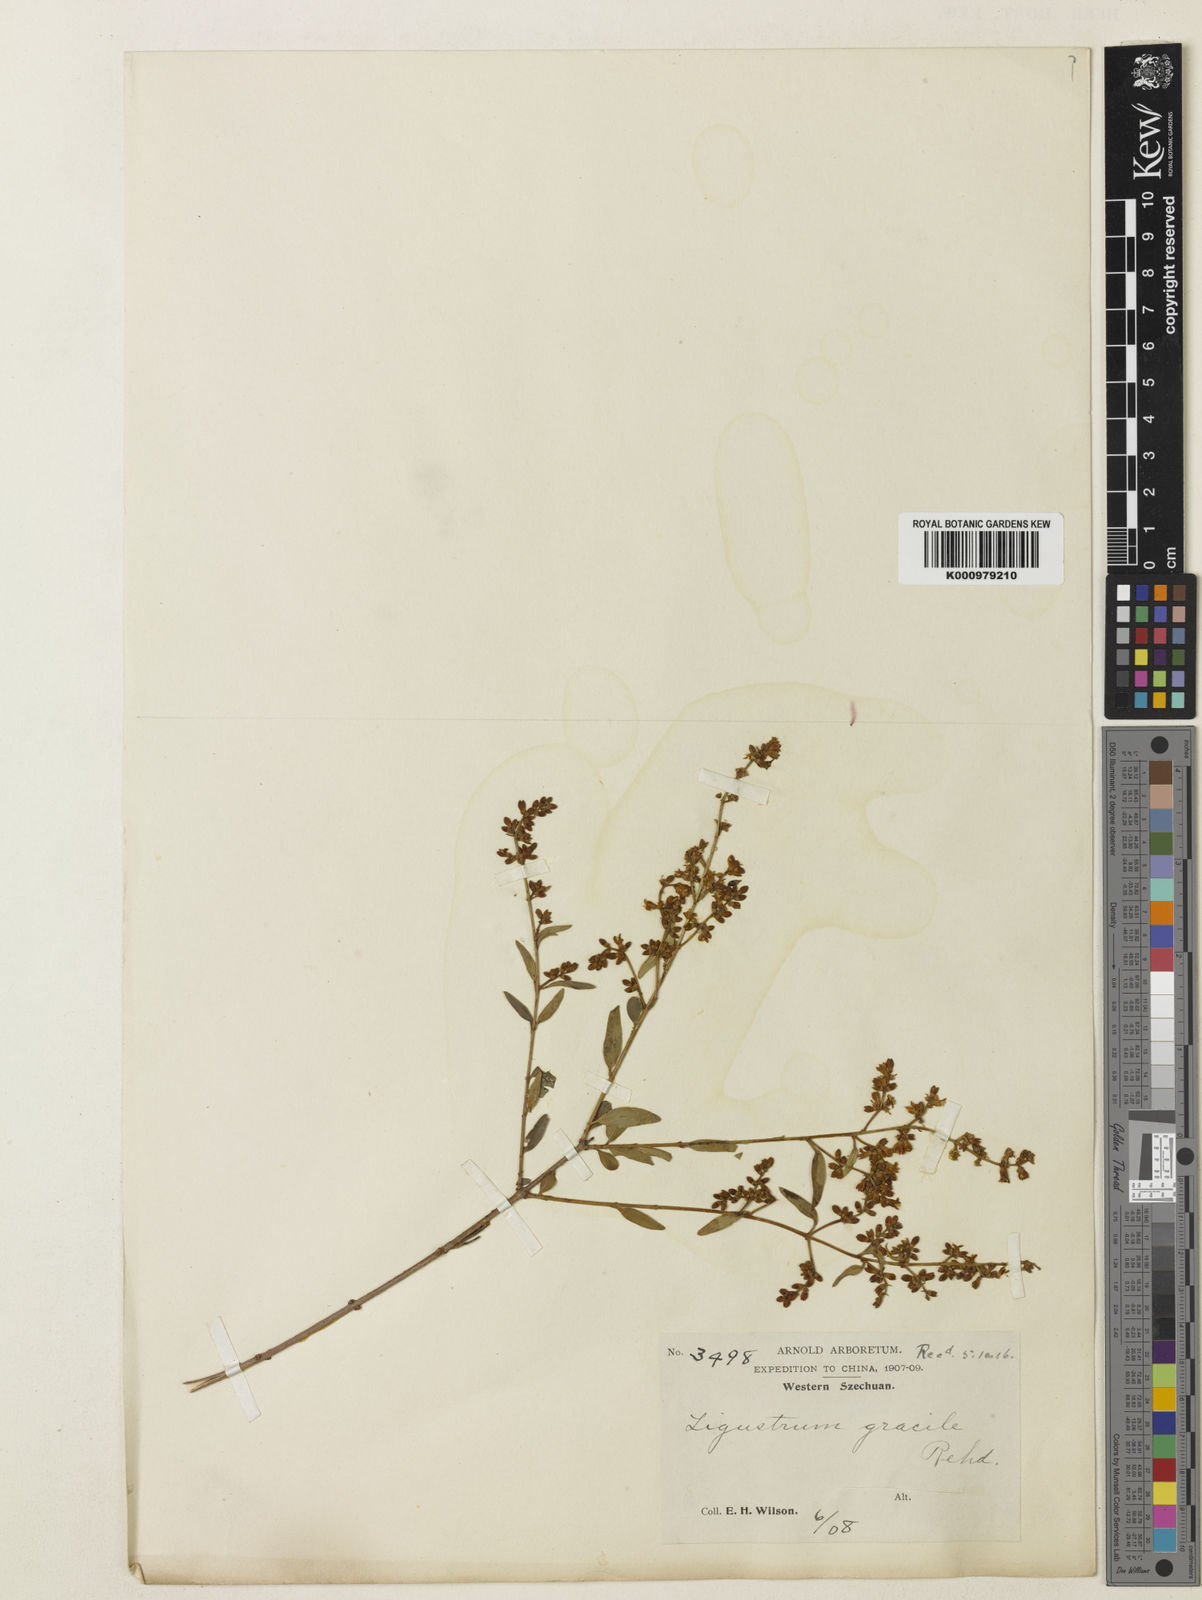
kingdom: Plantae
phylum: Tracheophyta
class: Magnoliopsida
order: Lamiales
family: Oleaceae
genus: Ligustrum
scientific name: Ligustrum gracile
